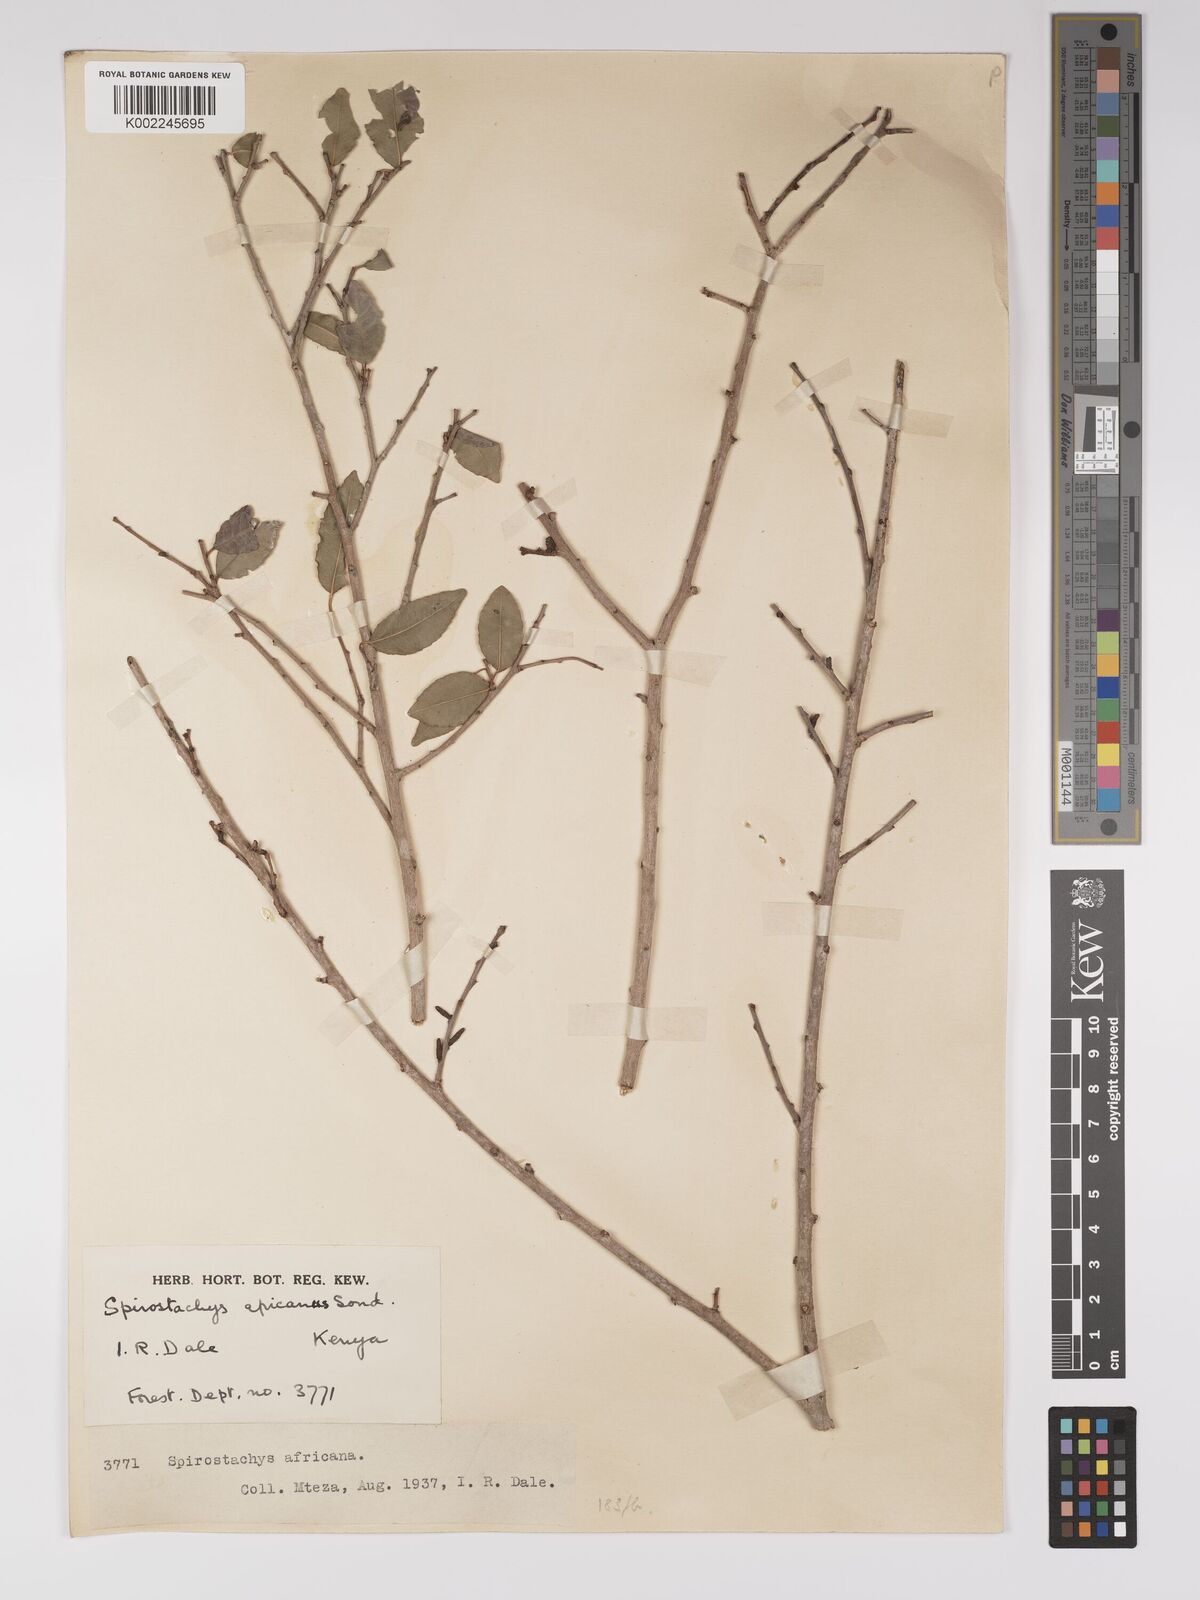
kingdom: Plantae
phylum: Tracheophyta
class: Magnoliopsida
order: Malpighiales
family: Euphorbiaceae
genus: Spirostachys
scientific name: Spirostachys africana
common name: Tamboti
